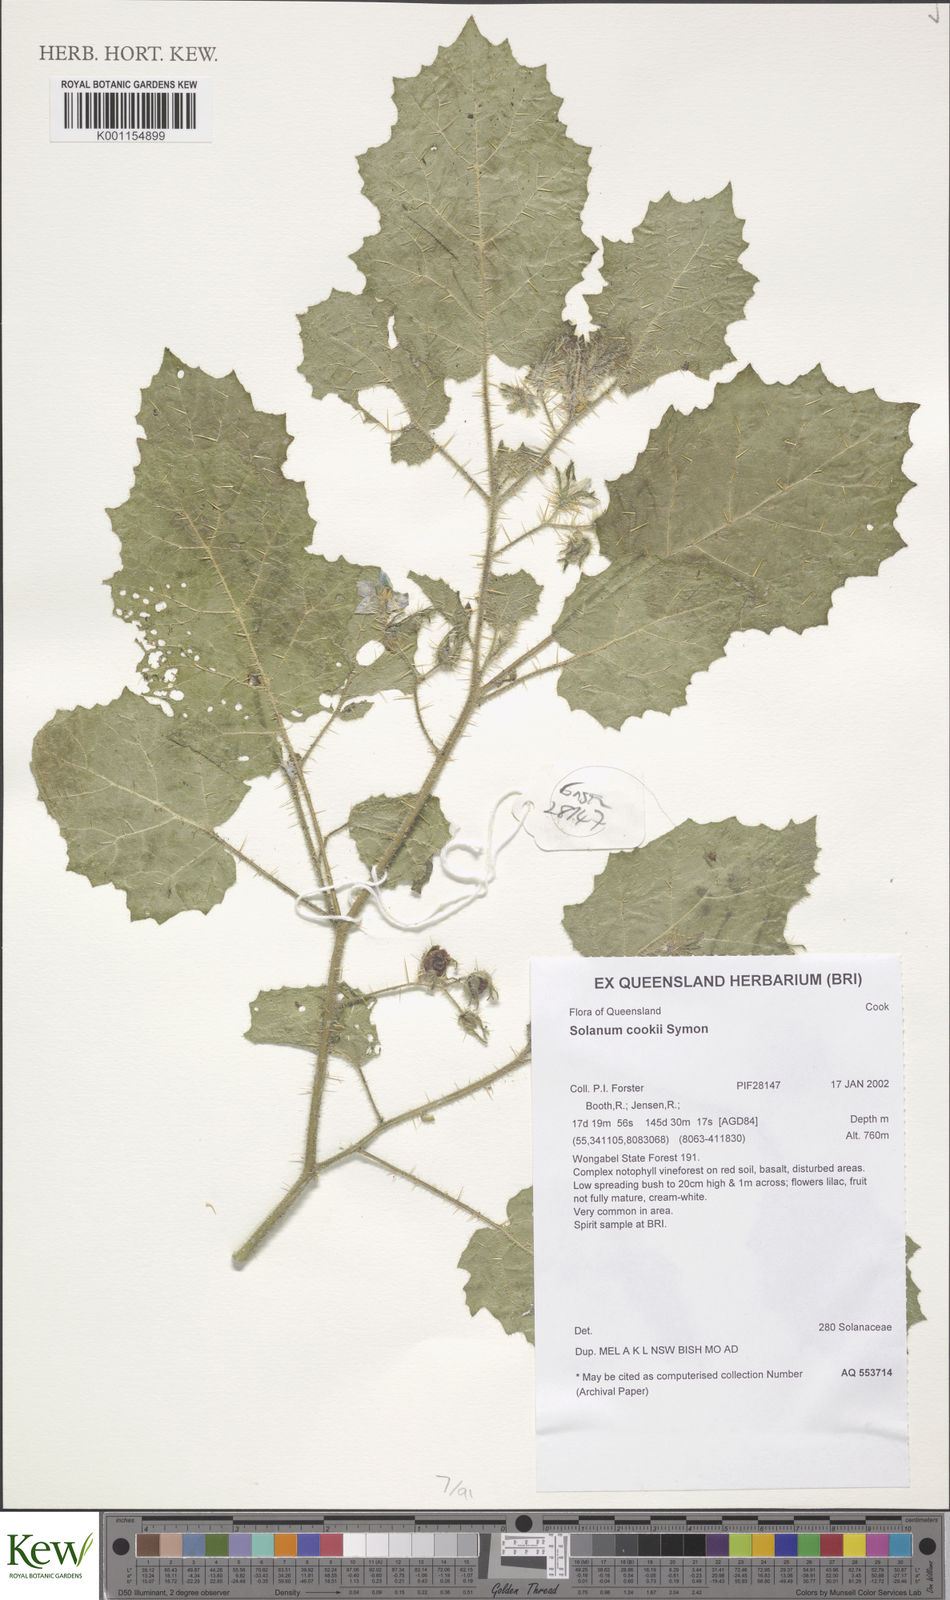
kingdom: Plantae
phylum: Tracheophyta
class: Magnoliopsida
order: Solanales
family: Solanaceae
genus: Solanum
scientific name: Solanum cookii
